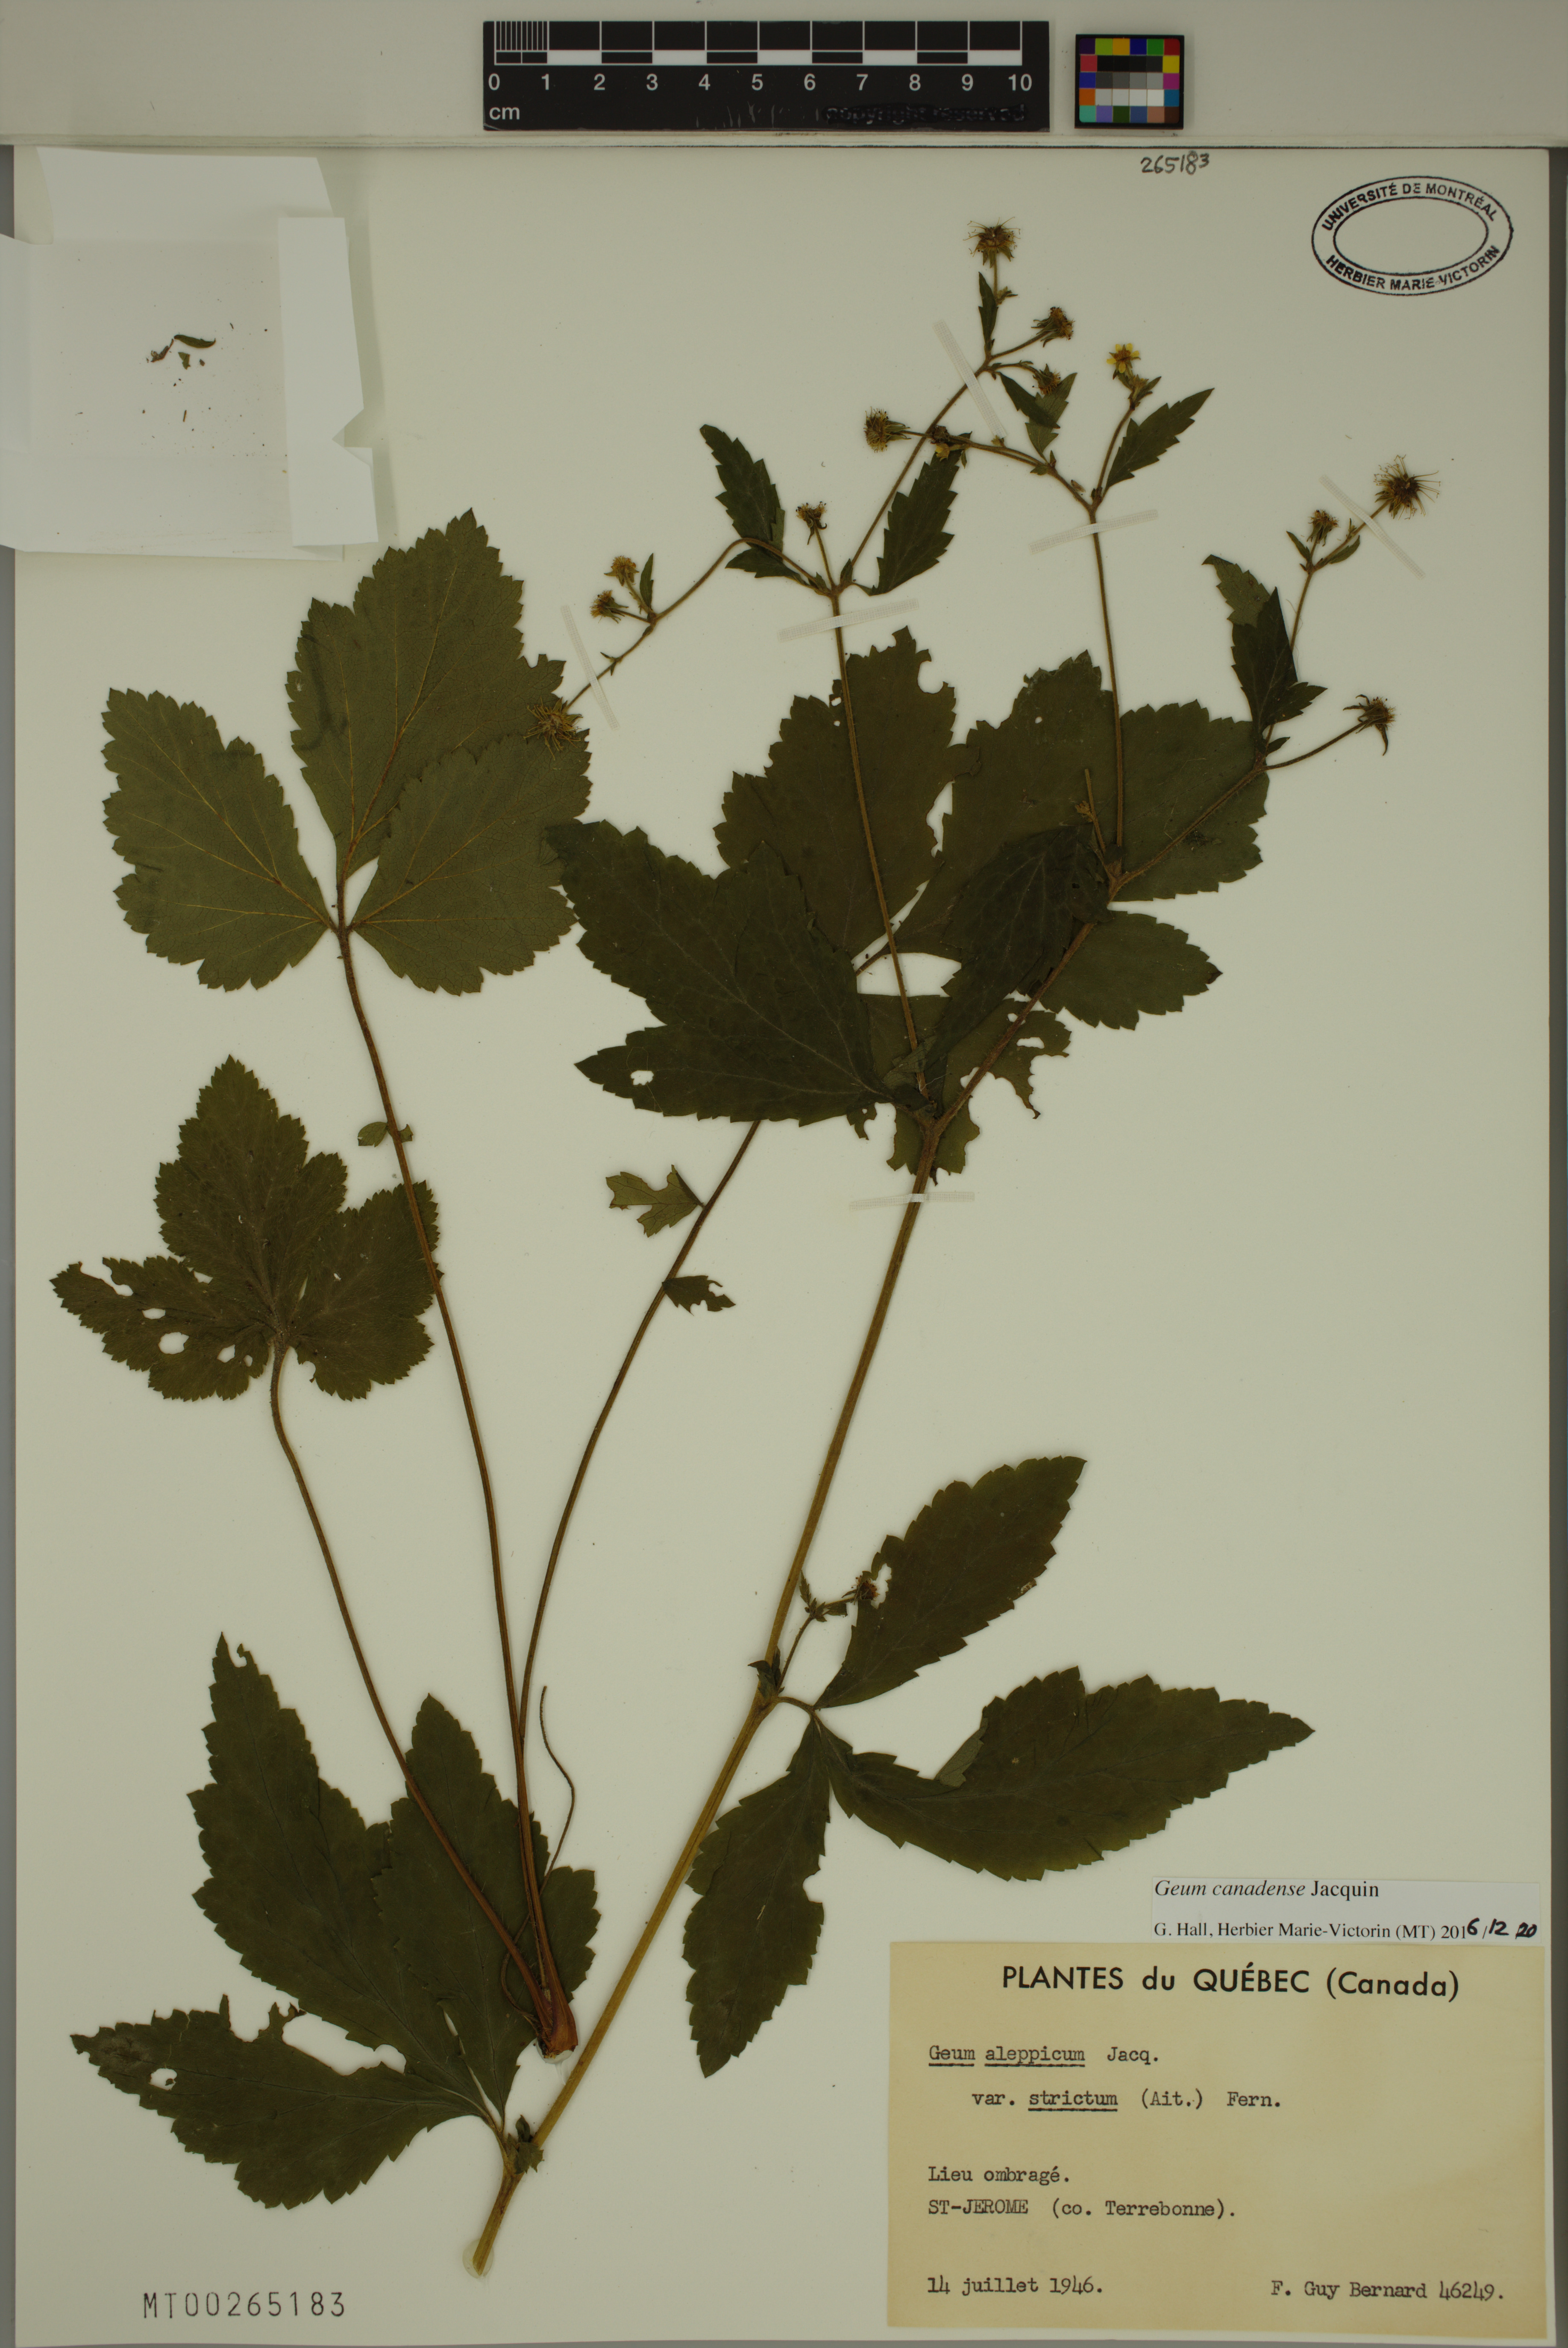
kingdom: Plantae
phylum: Tracheophyta
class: Magnoliopsida
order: Rosales
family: Rosaceae
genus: Geum
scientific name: Geum canadense
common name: White avens
